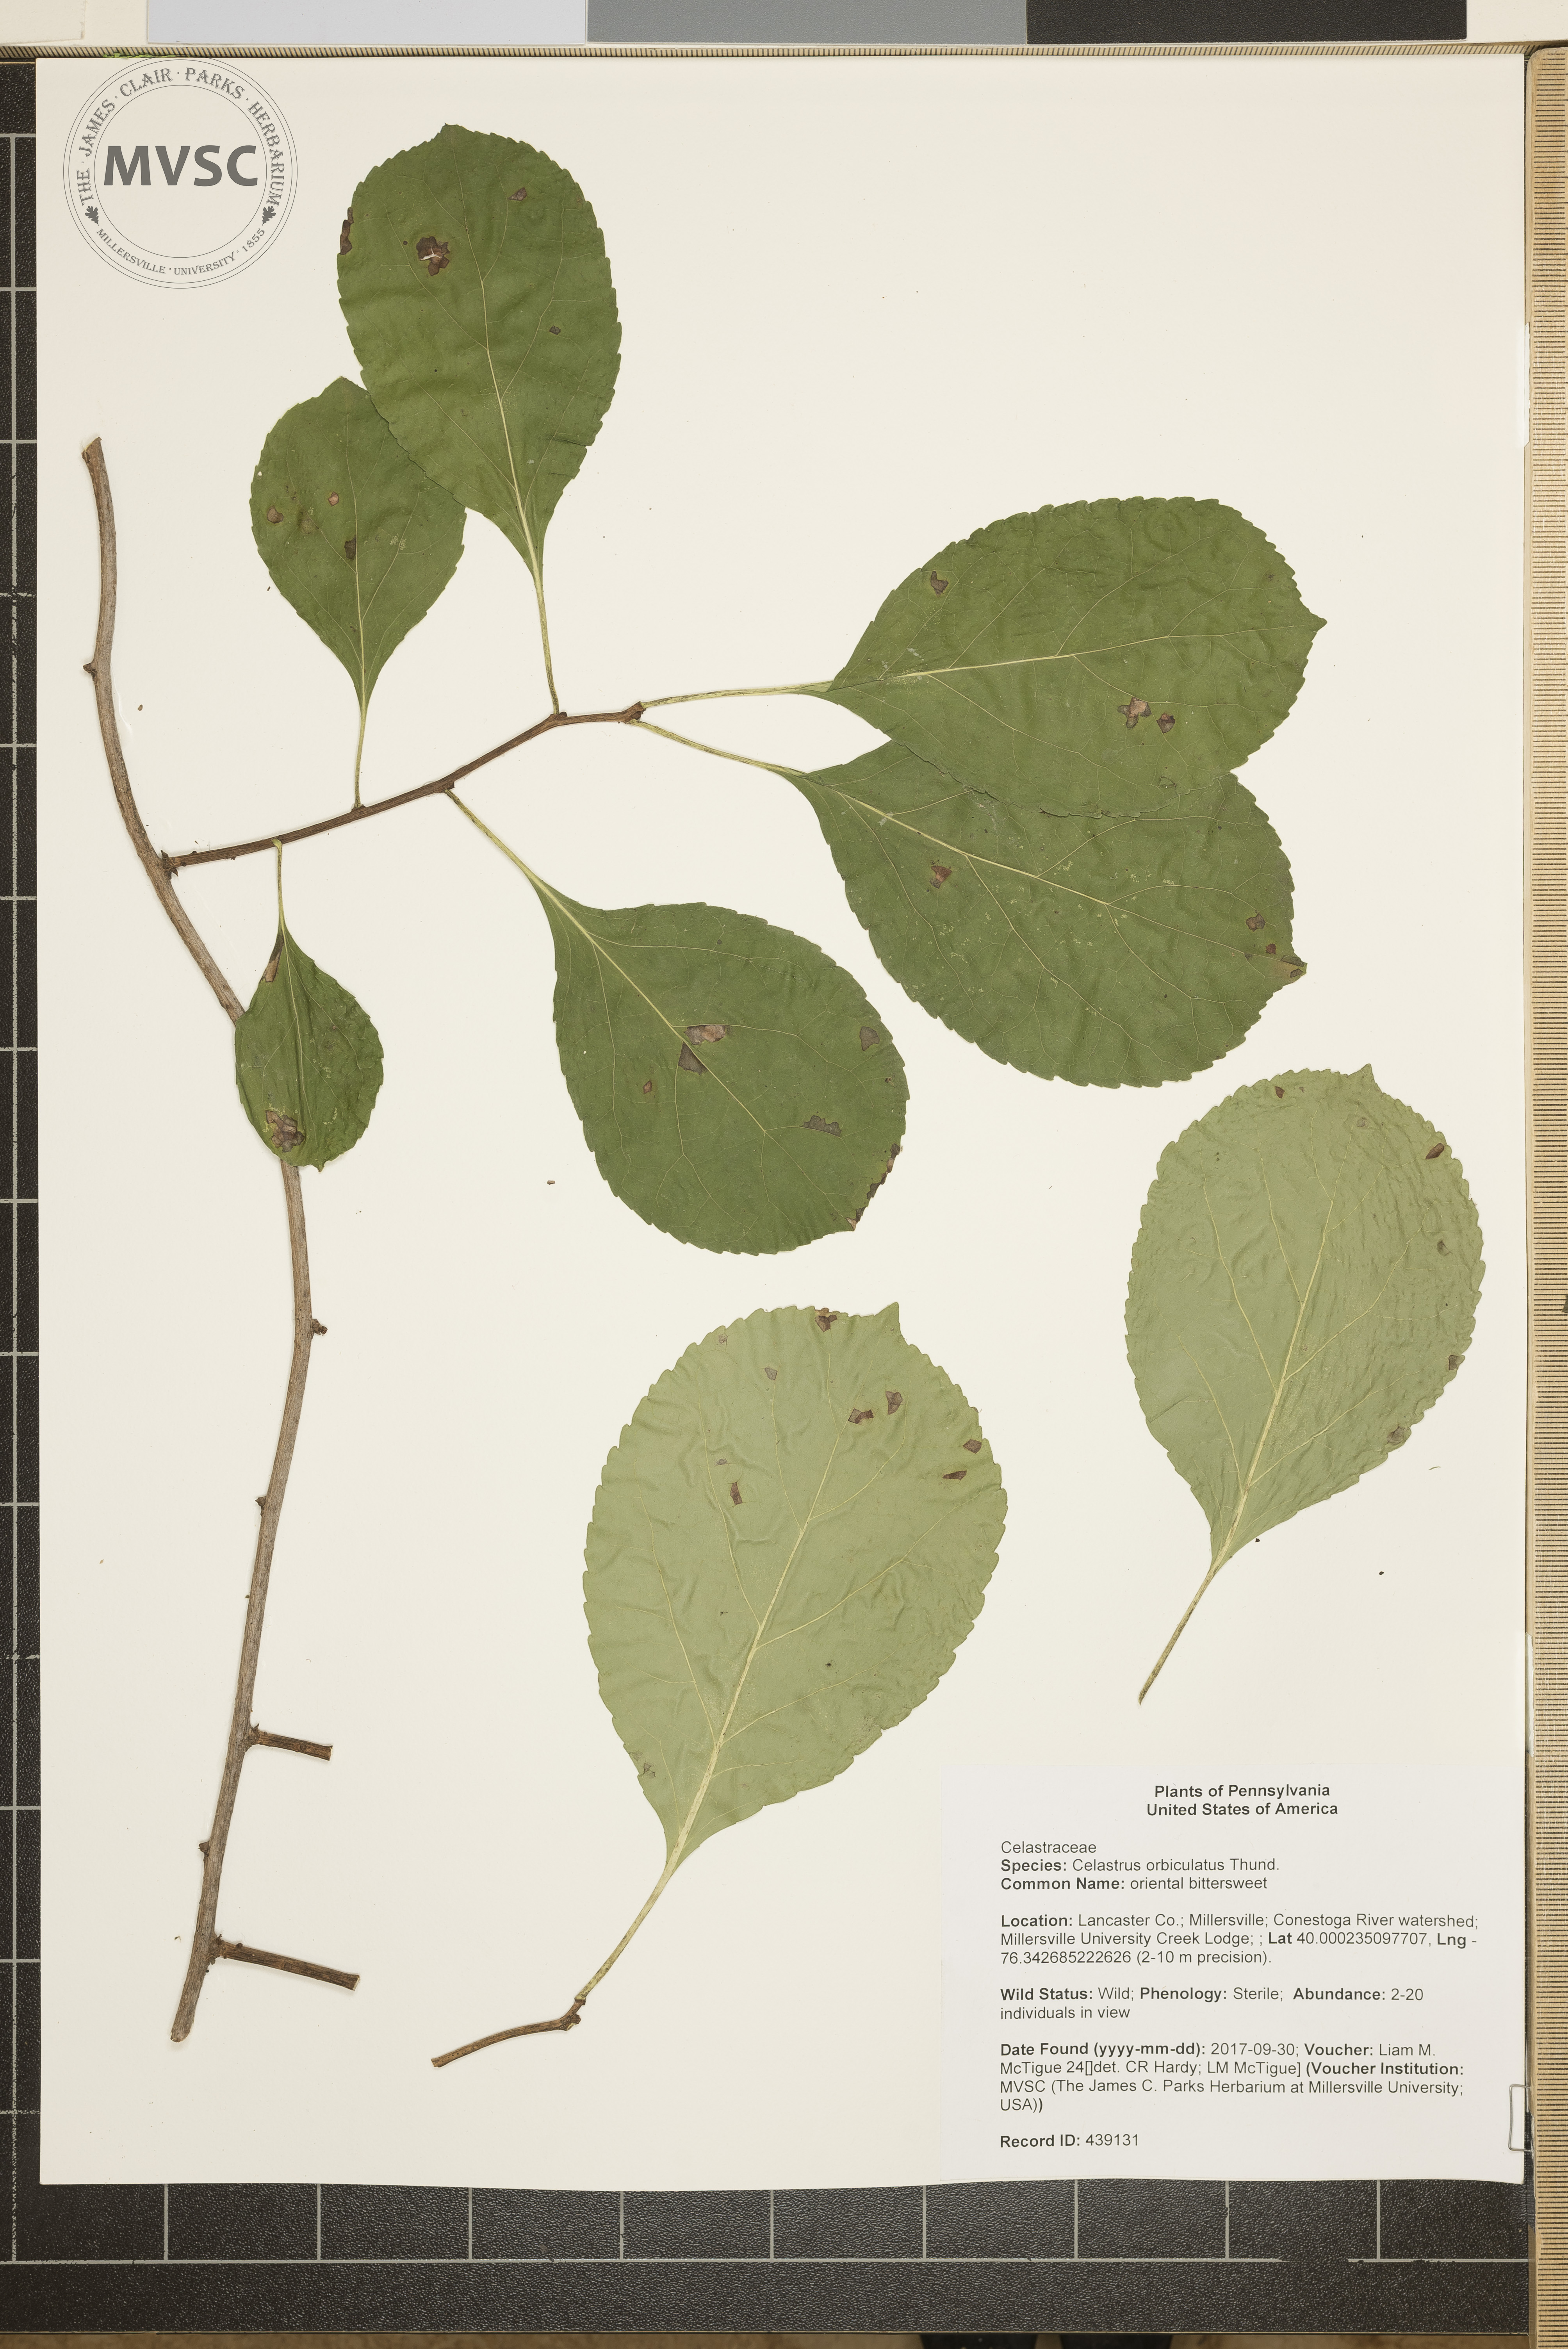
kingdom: Plantae
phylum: Tracheophyta
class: Magnoliopsida
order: Celastrales
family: Celastraceae
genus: Celastrus
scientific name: Celastrus orbiculatus
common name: oriental bittersweet
